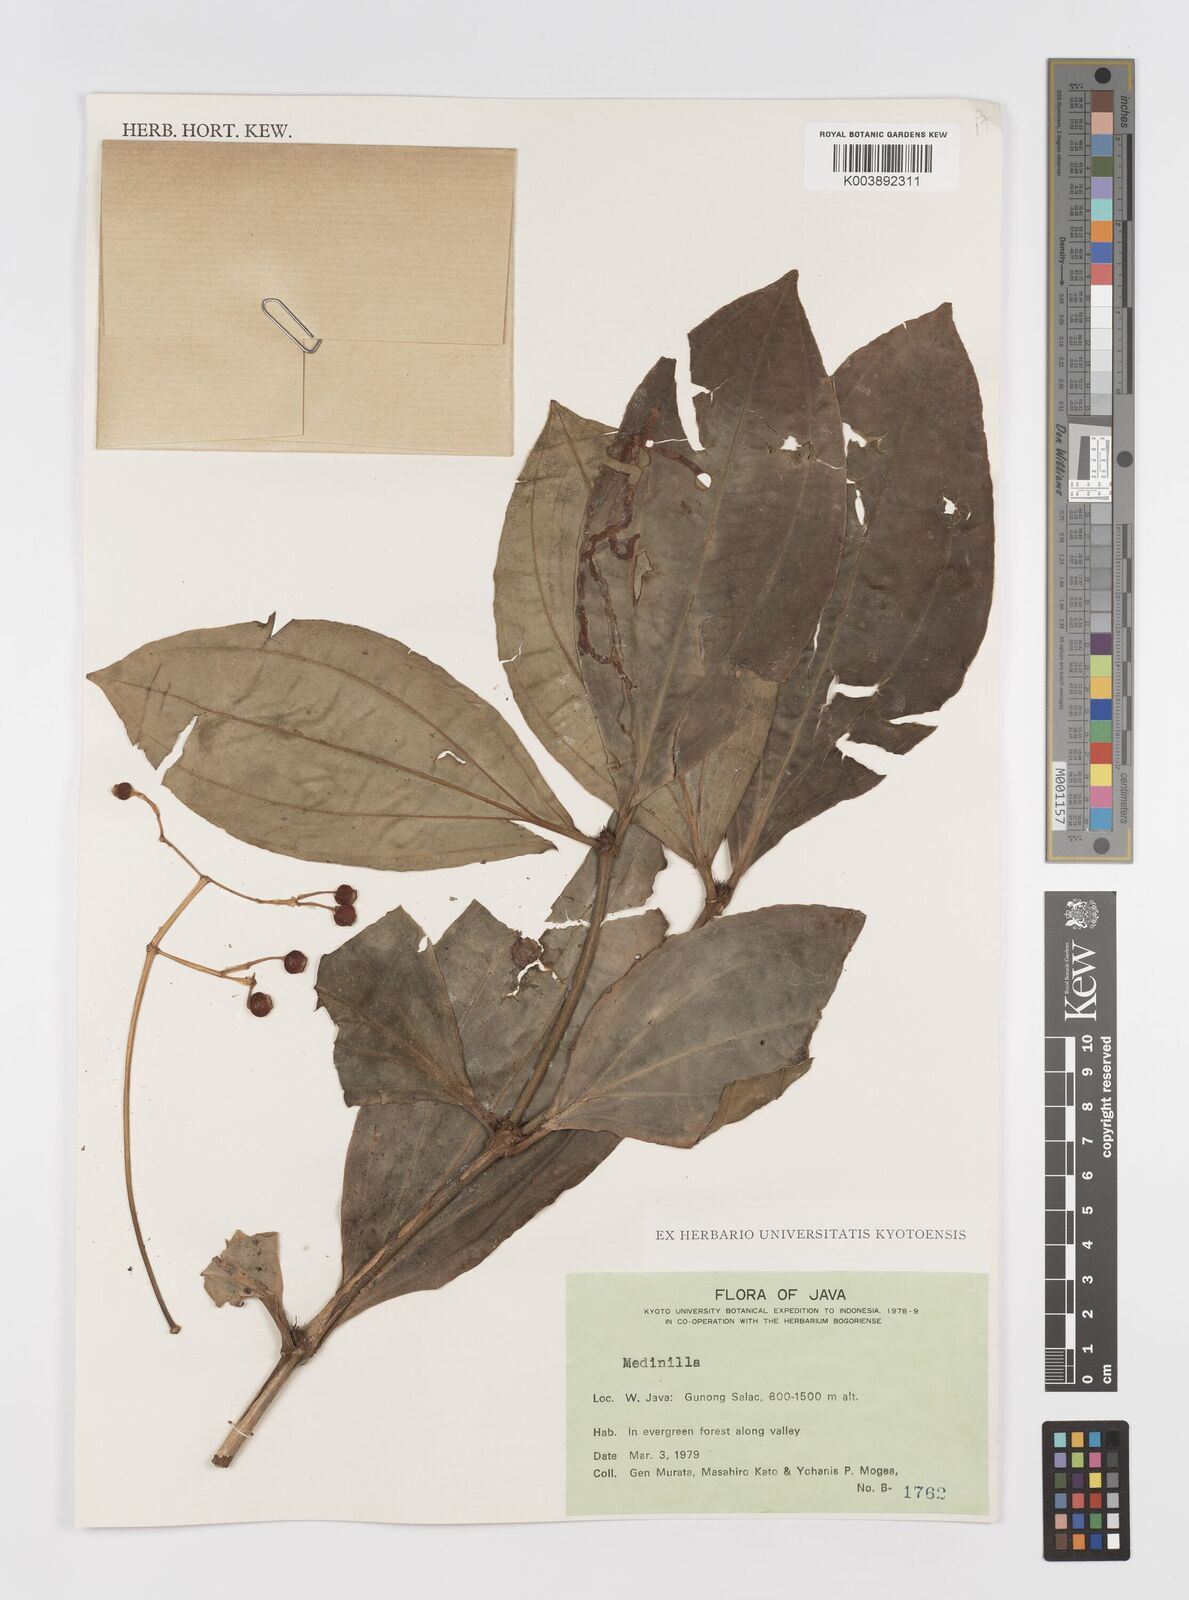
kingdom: Plantae
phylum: Tracheophyta
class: Magnoliopsida
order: Myrtales
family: Melastomataceae
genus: Medinilla
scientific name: Medinilla
